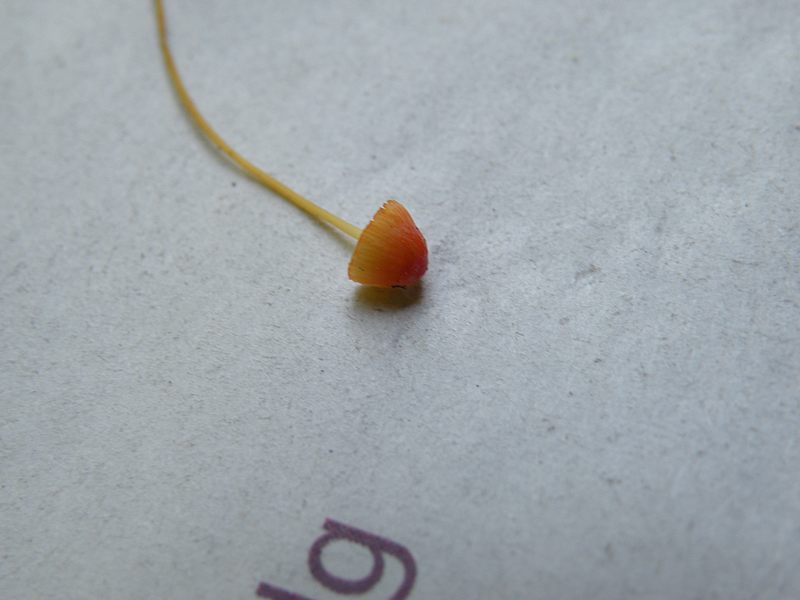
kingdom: Fungi
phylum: Basidiomycota
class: Agaricomycetes
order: Agaricales
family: Mycenaceae
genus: Mycena
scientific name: Mycena acicula
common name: orange huesvamp
